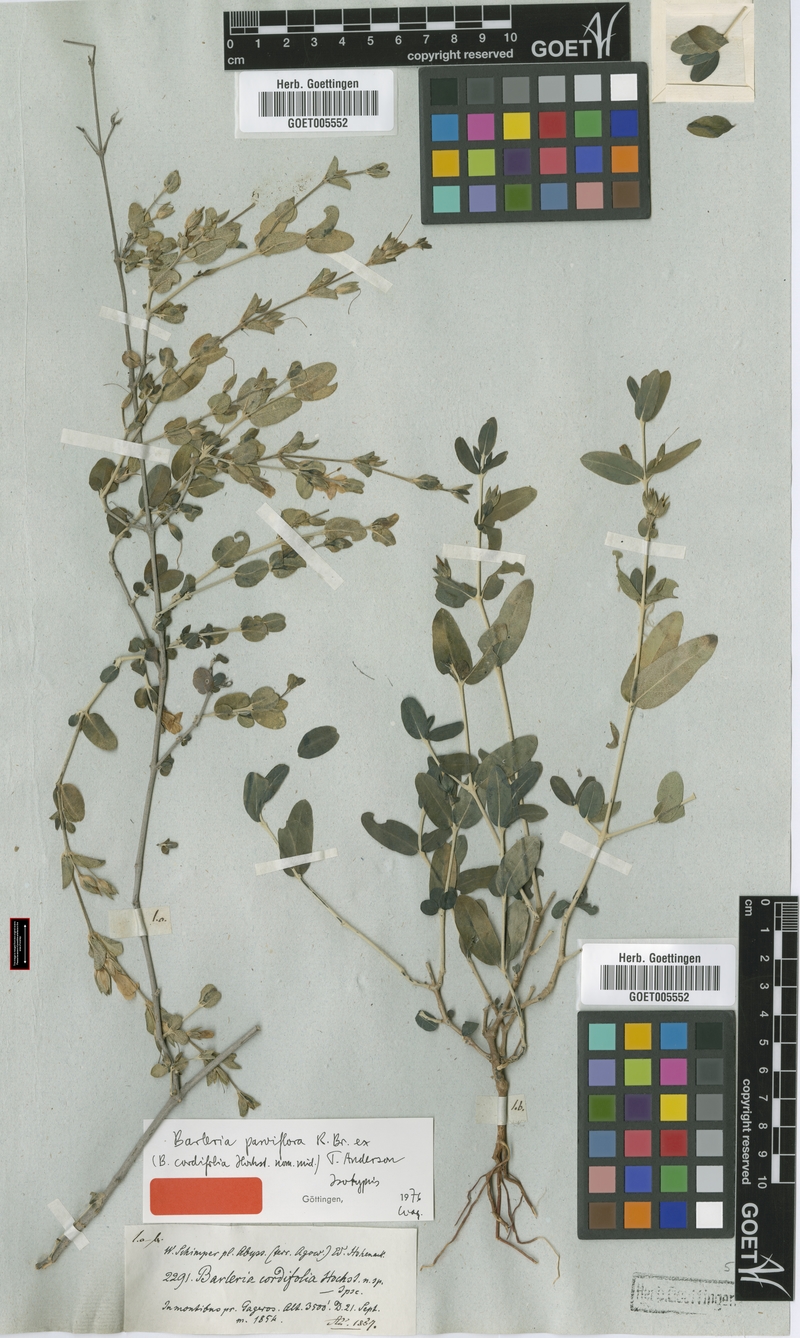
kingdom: Plantae
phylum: Tracheophyta
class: Magnoliopsida
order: Lamiales
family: Acanthaceae
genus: Barleria
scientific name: Barleria parviflora
